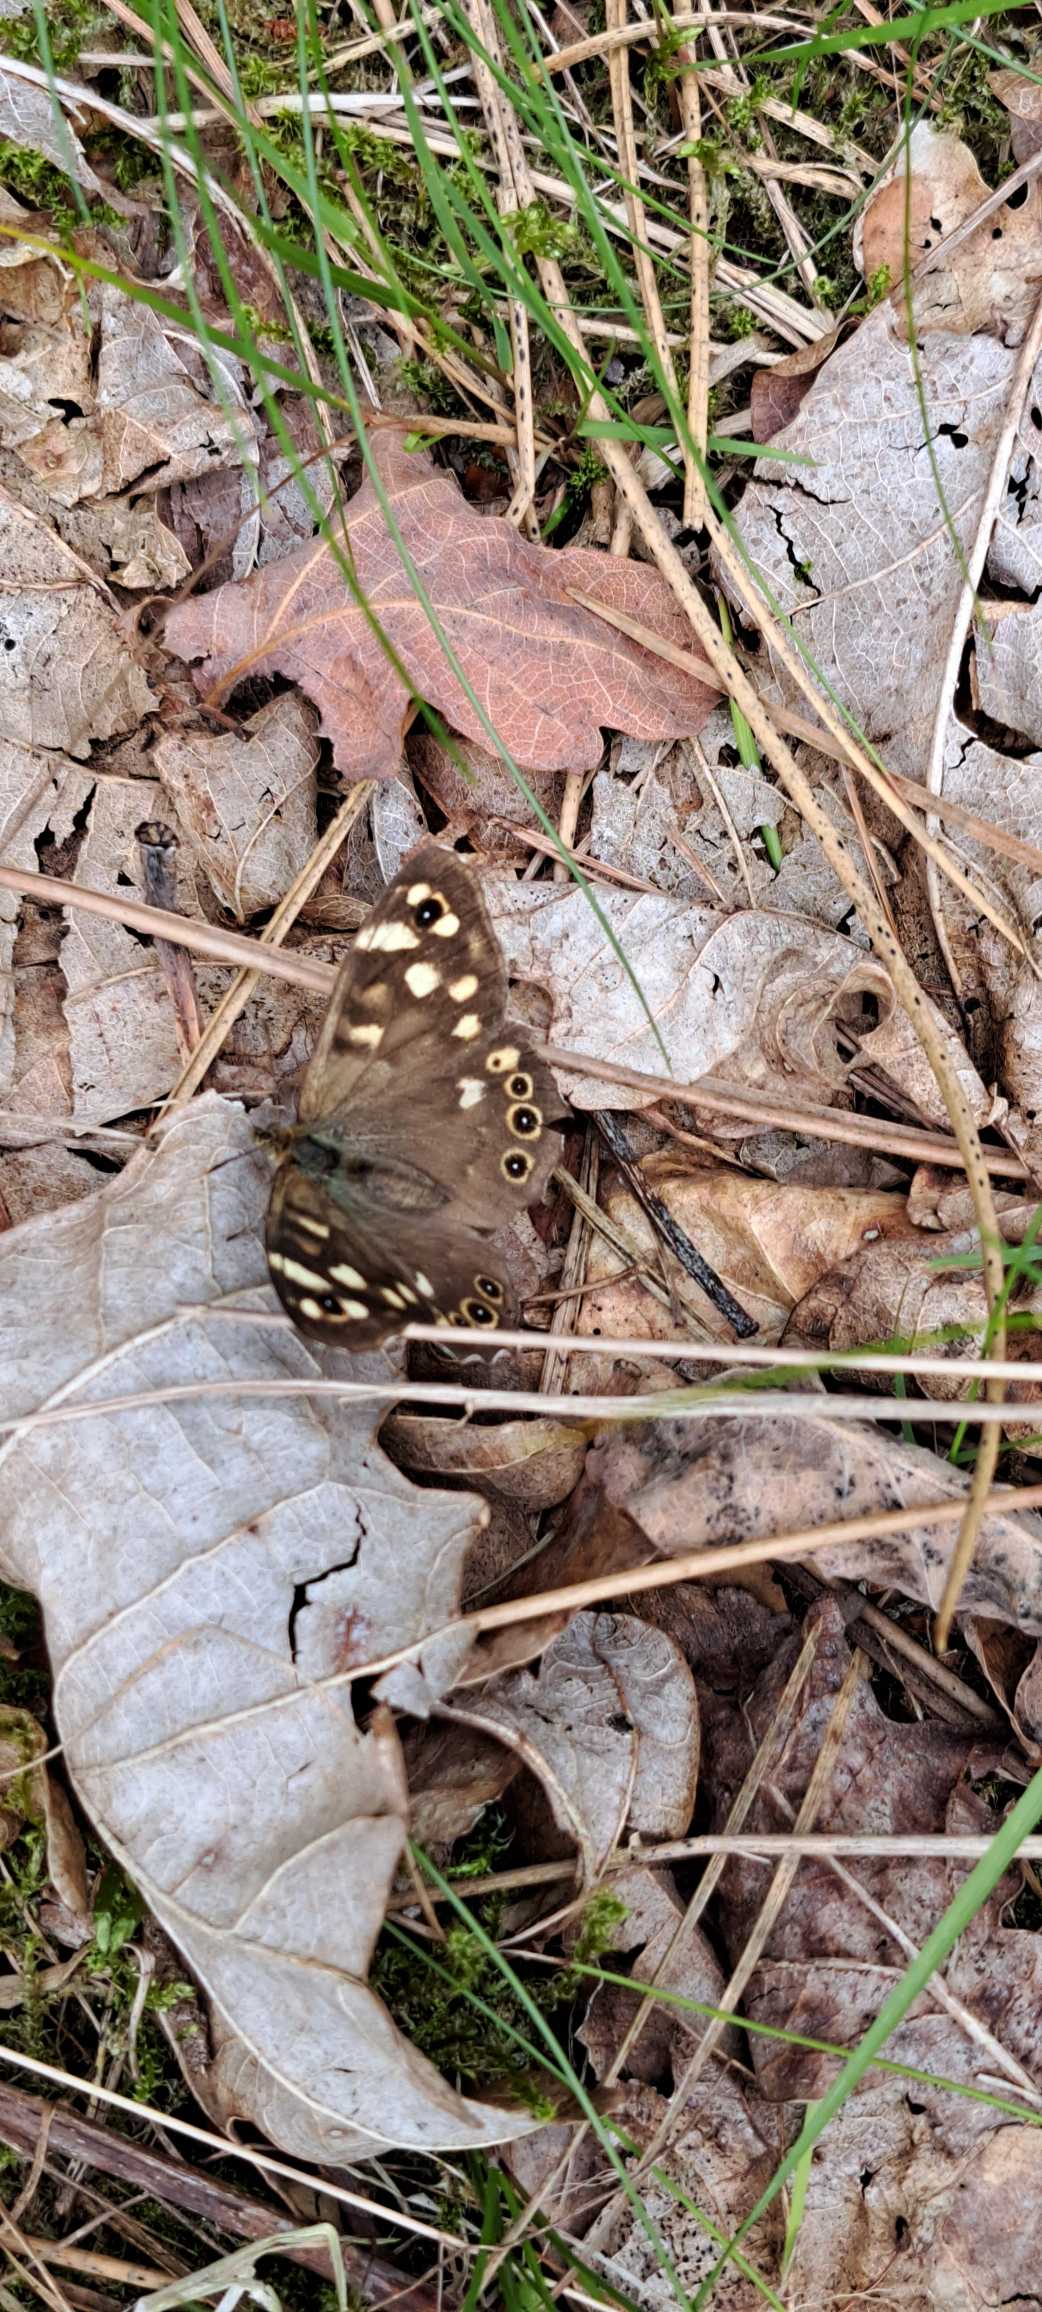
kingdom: Animalia
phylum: Arthropoda
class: Insecta
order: Lepidoptera
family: Nymphalidae
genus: Pararge
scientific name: Pararge aegeria
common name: Skovrandøje
